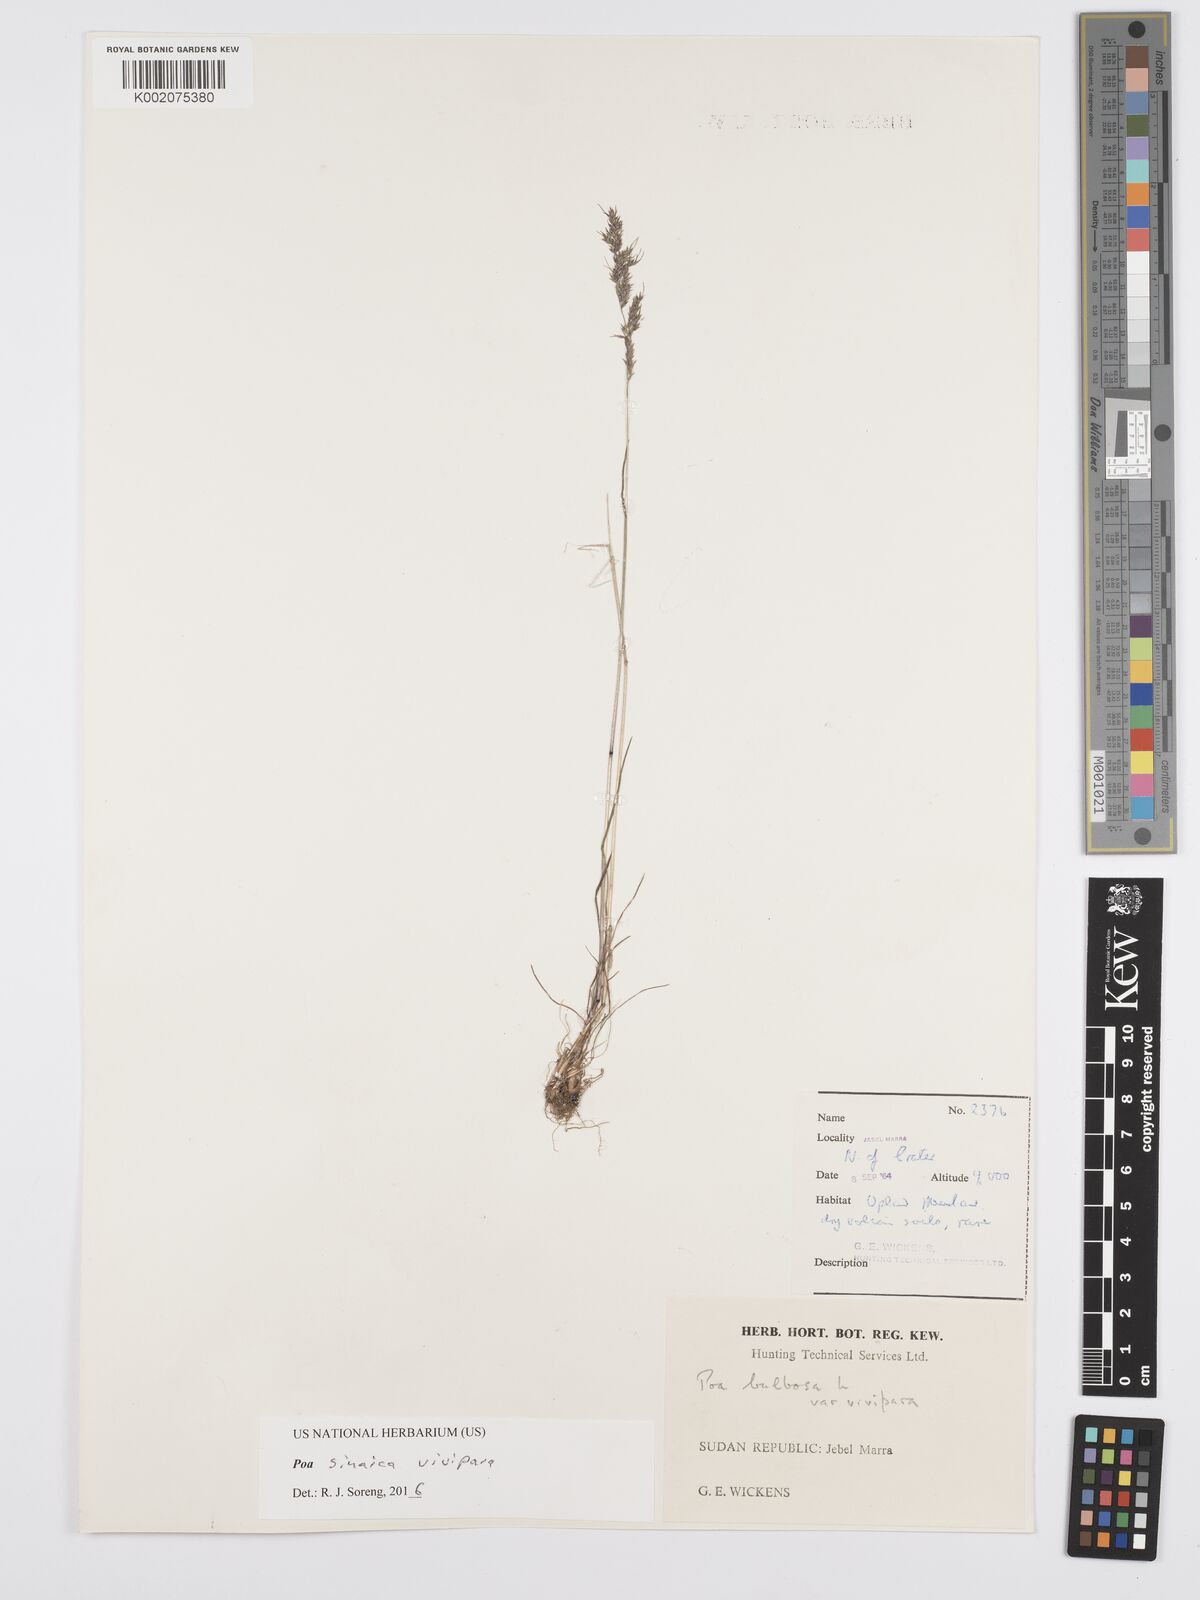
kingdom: Plantae
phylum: Tracheophyta
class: Liliopsida
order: Poales
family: Poaceae
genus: Poa
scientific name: Poa sinaica
